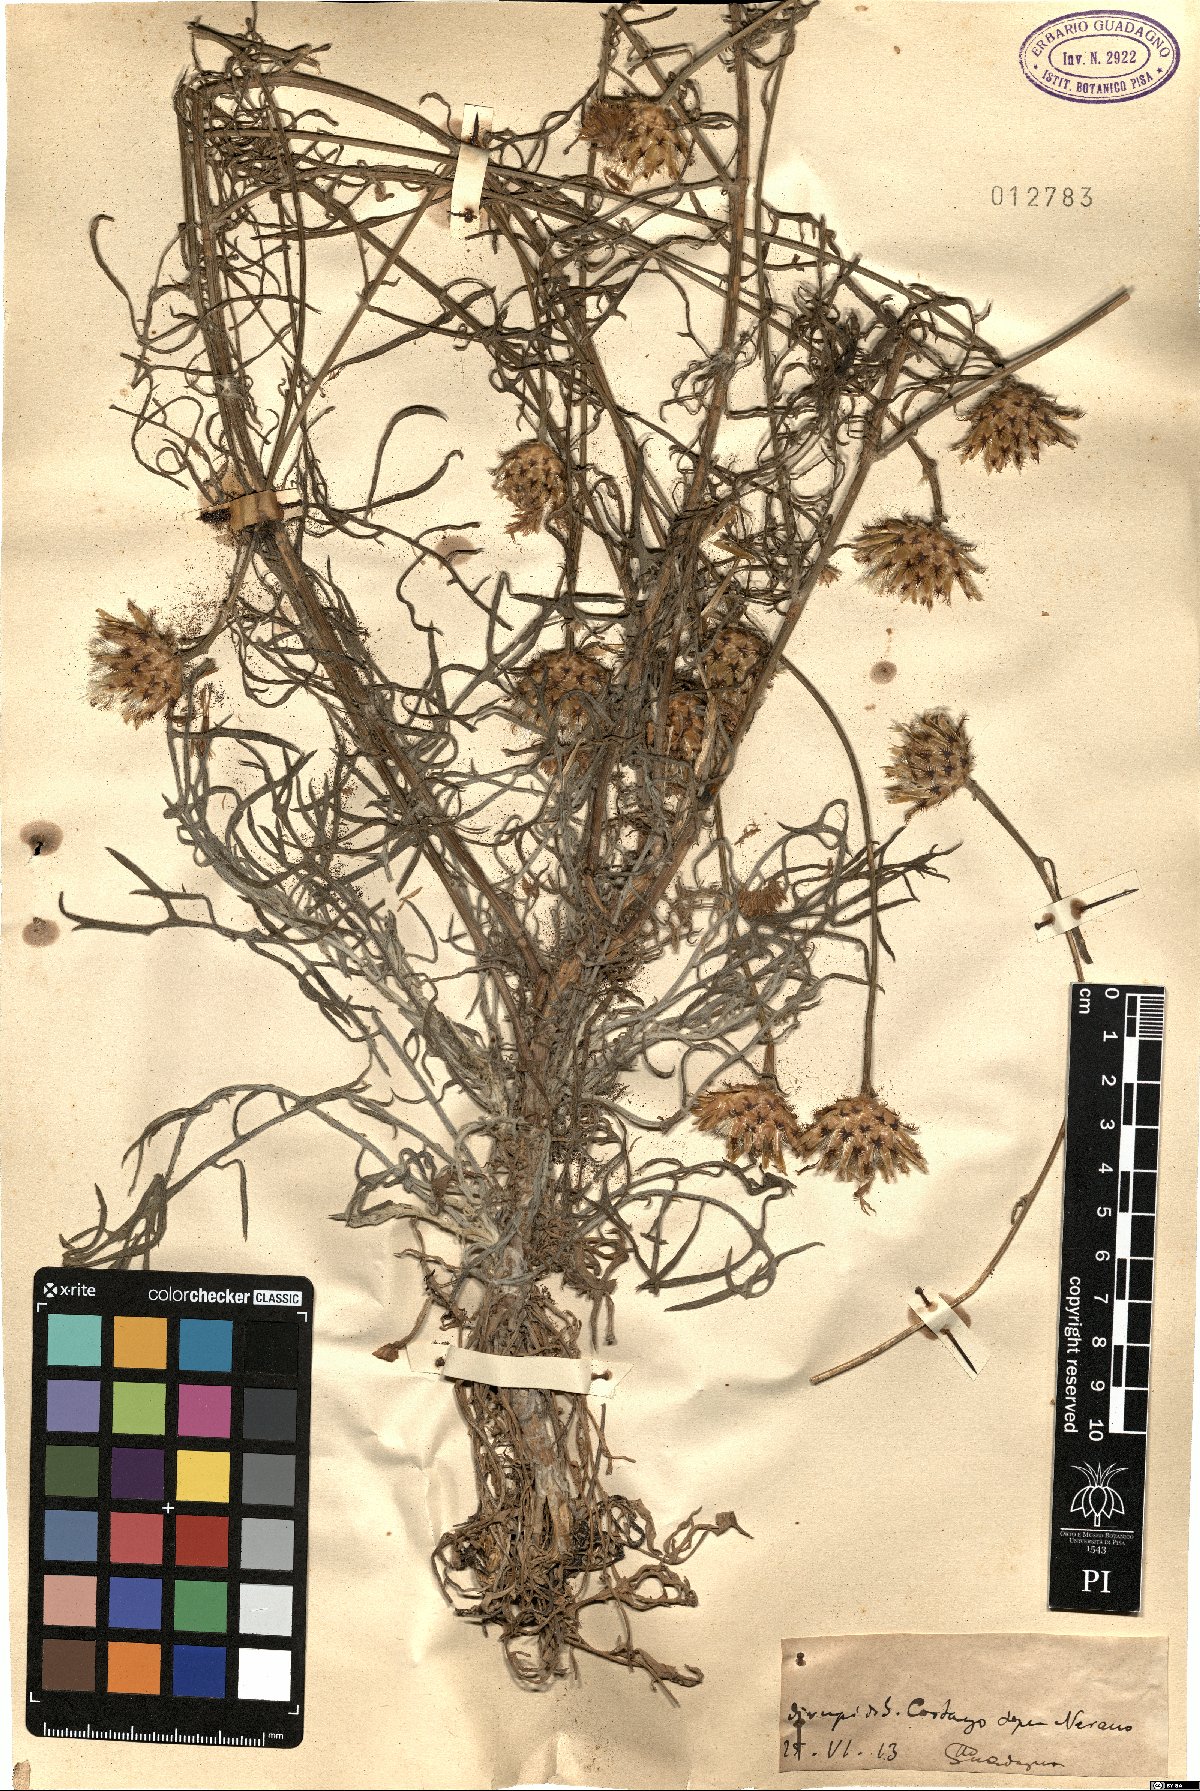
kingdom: Plantae
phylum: Tracheophyta
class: Magnoliopsida
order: Asterales
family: Asteraceae
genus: Centaurea
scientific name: Centaurea
